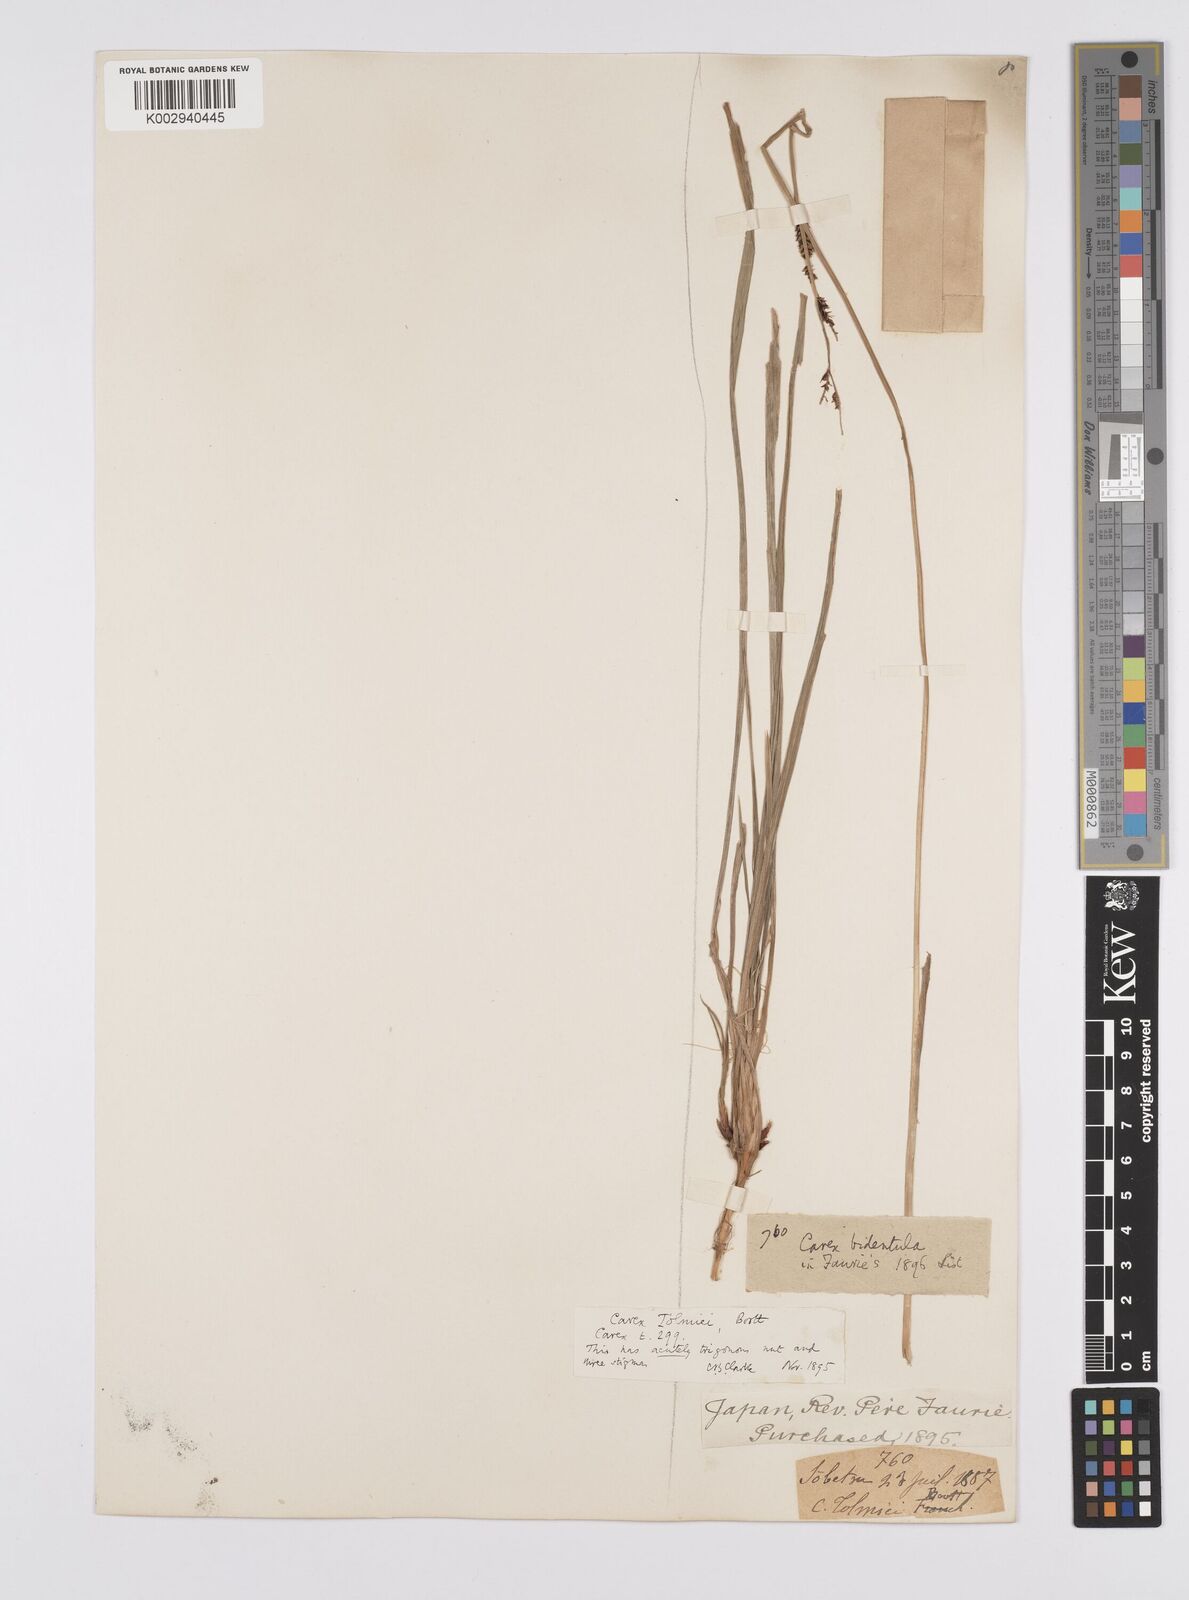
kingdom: Plantae
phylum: Tracheophyta
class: Liliopsida
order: Poales
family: Cyperaceae
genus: Carex
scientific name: Carex augustinowiczii
